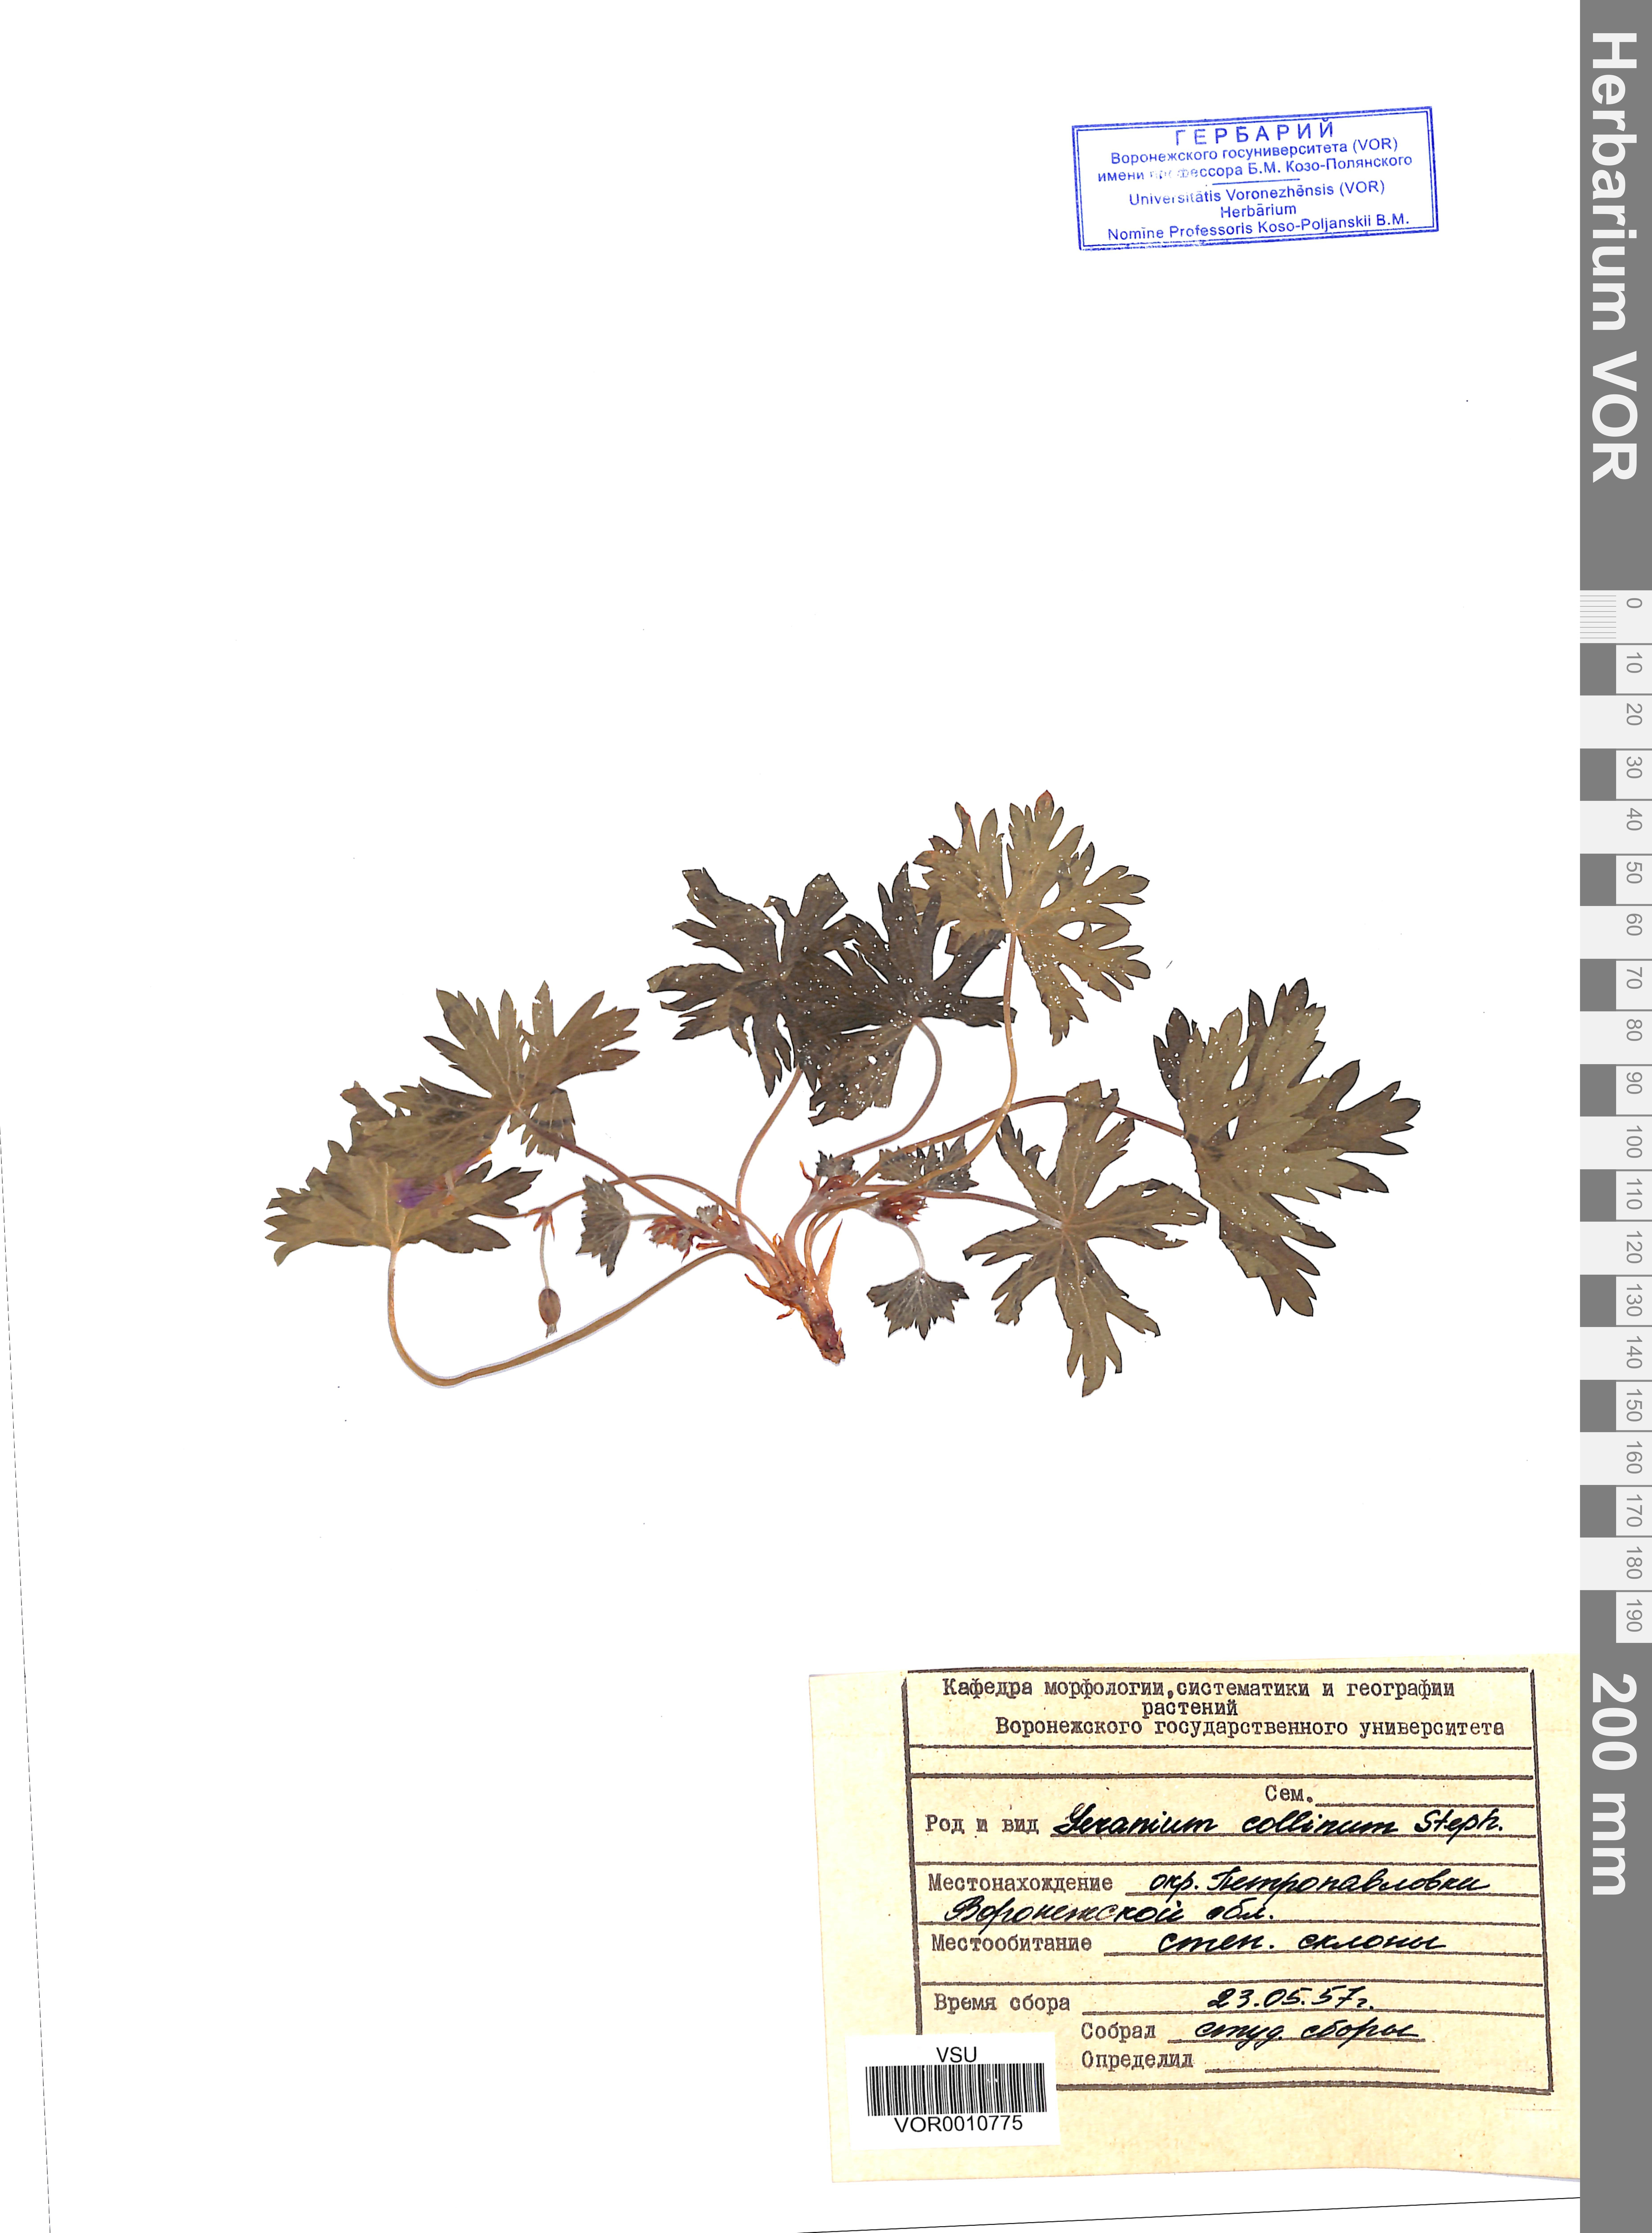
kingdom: Plantae
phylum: Tracheophyta
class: Magnoliopsida
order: Geraniales
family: Geraniaceae
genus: Geranium
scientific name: Geranium collinum
